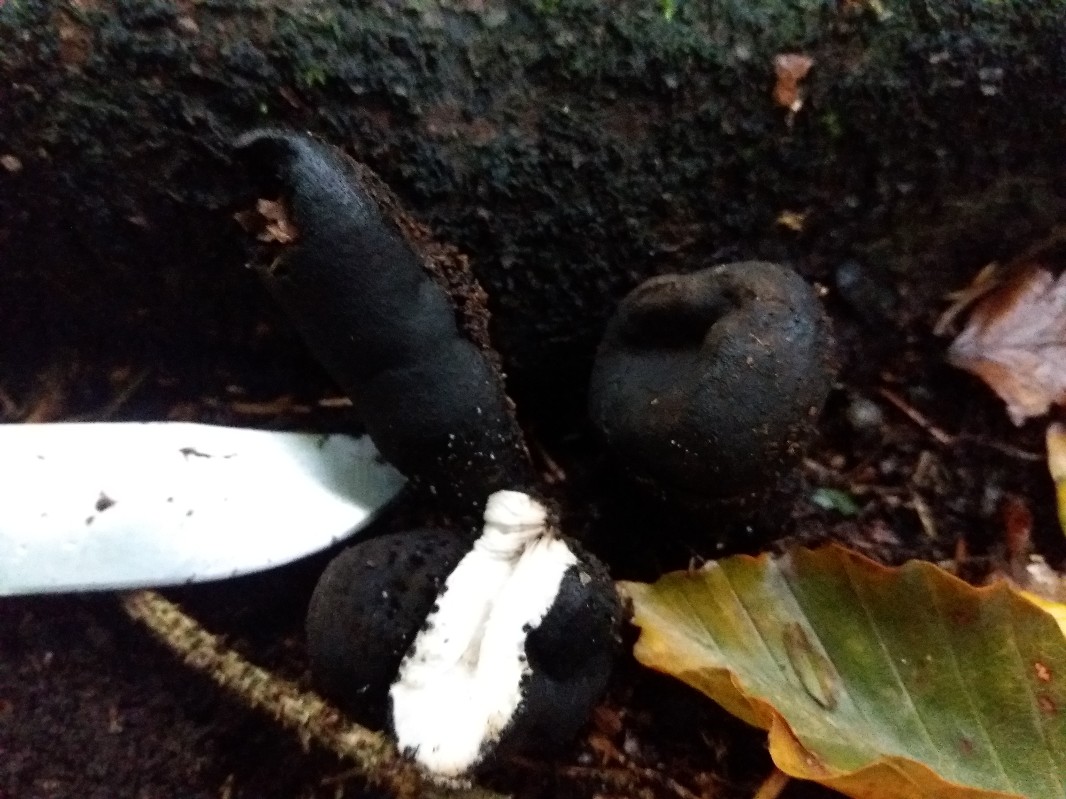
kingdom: Fungi
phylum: Ascomycota
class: Sordariomycetes
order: Xylariales
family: Xylariaceae
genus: Xylaria
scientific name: Xylaria polymorpha
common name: kølle-stødsvamp
